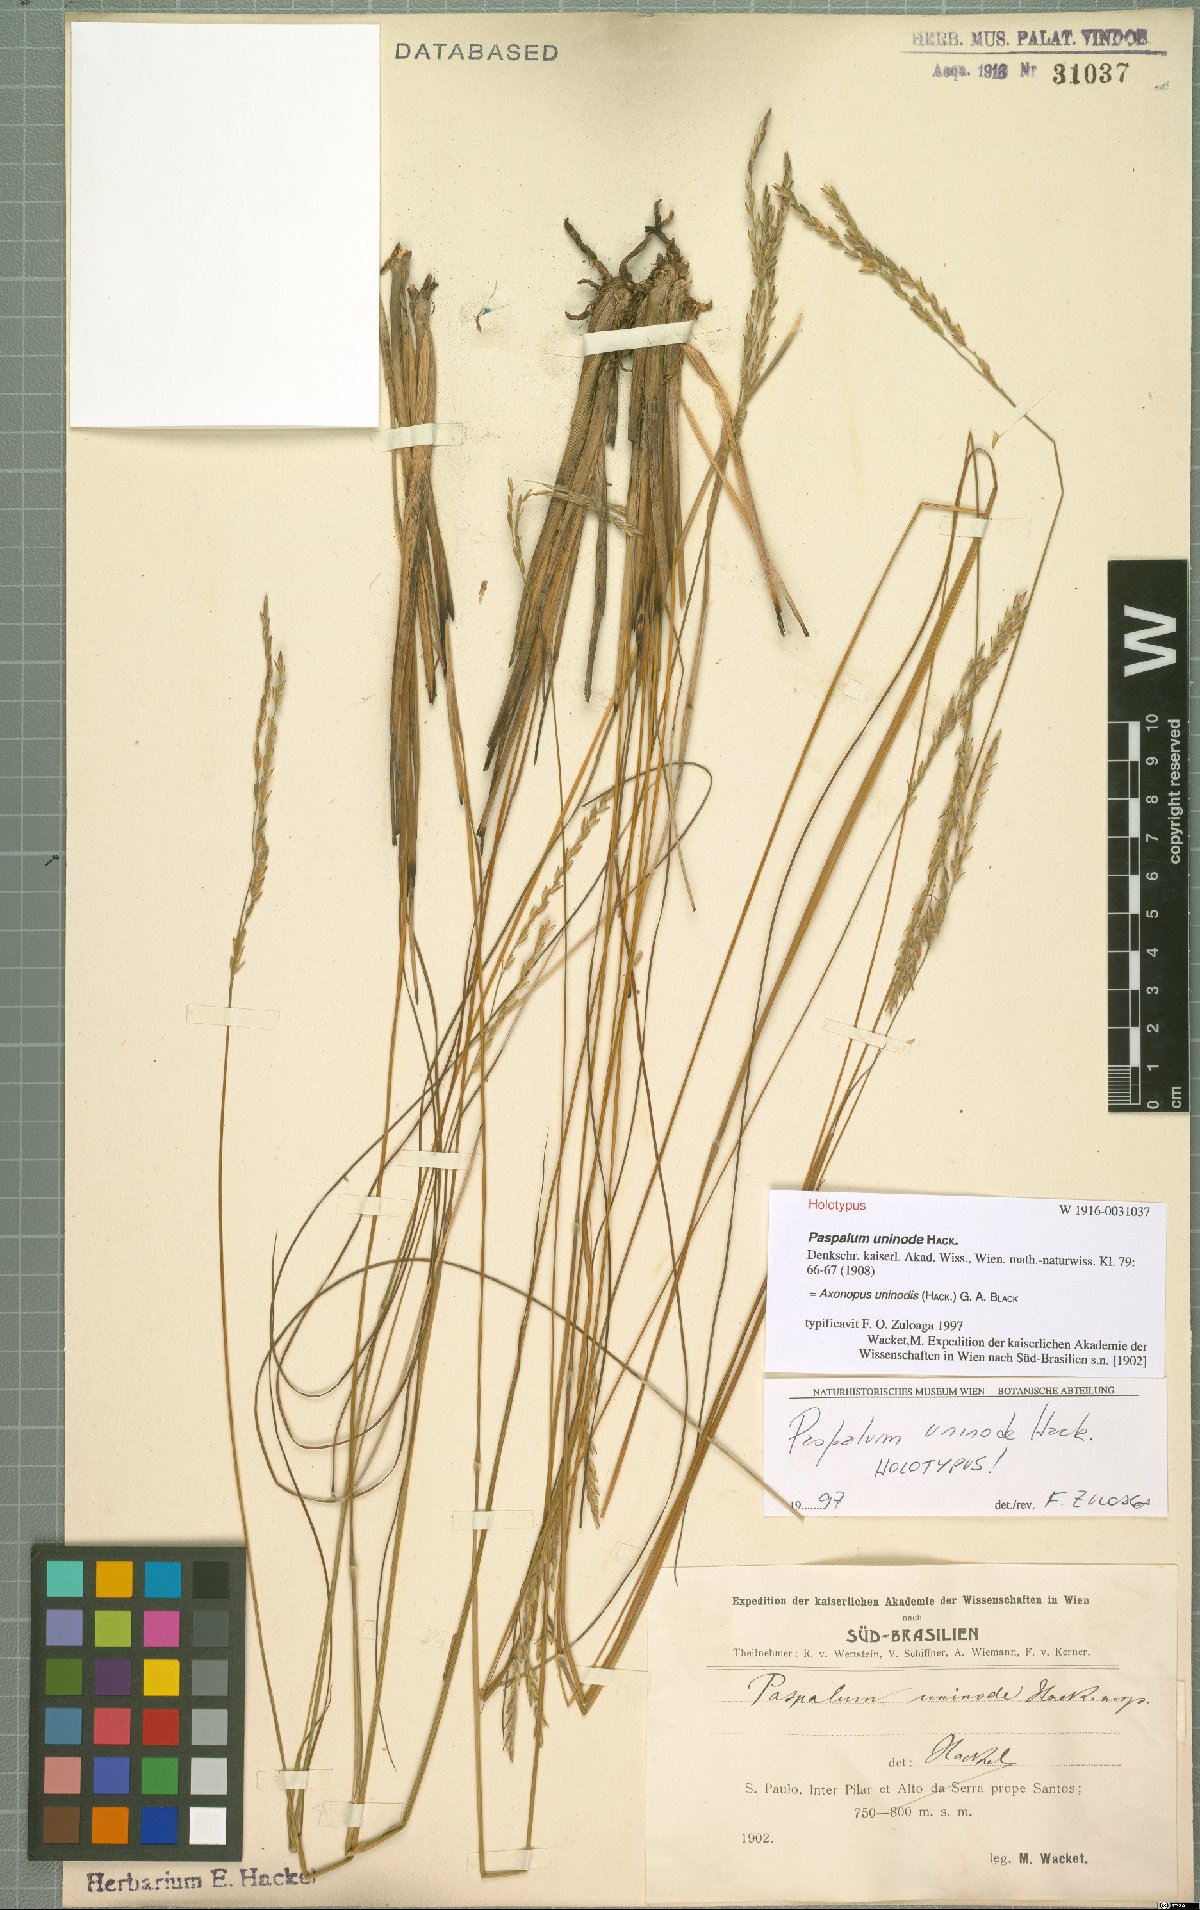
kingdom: Plantae
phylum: Tracheophyta
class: Liliopsida
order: Poales
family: Poaceae
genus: Axonopus
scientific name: Axonopus comans
